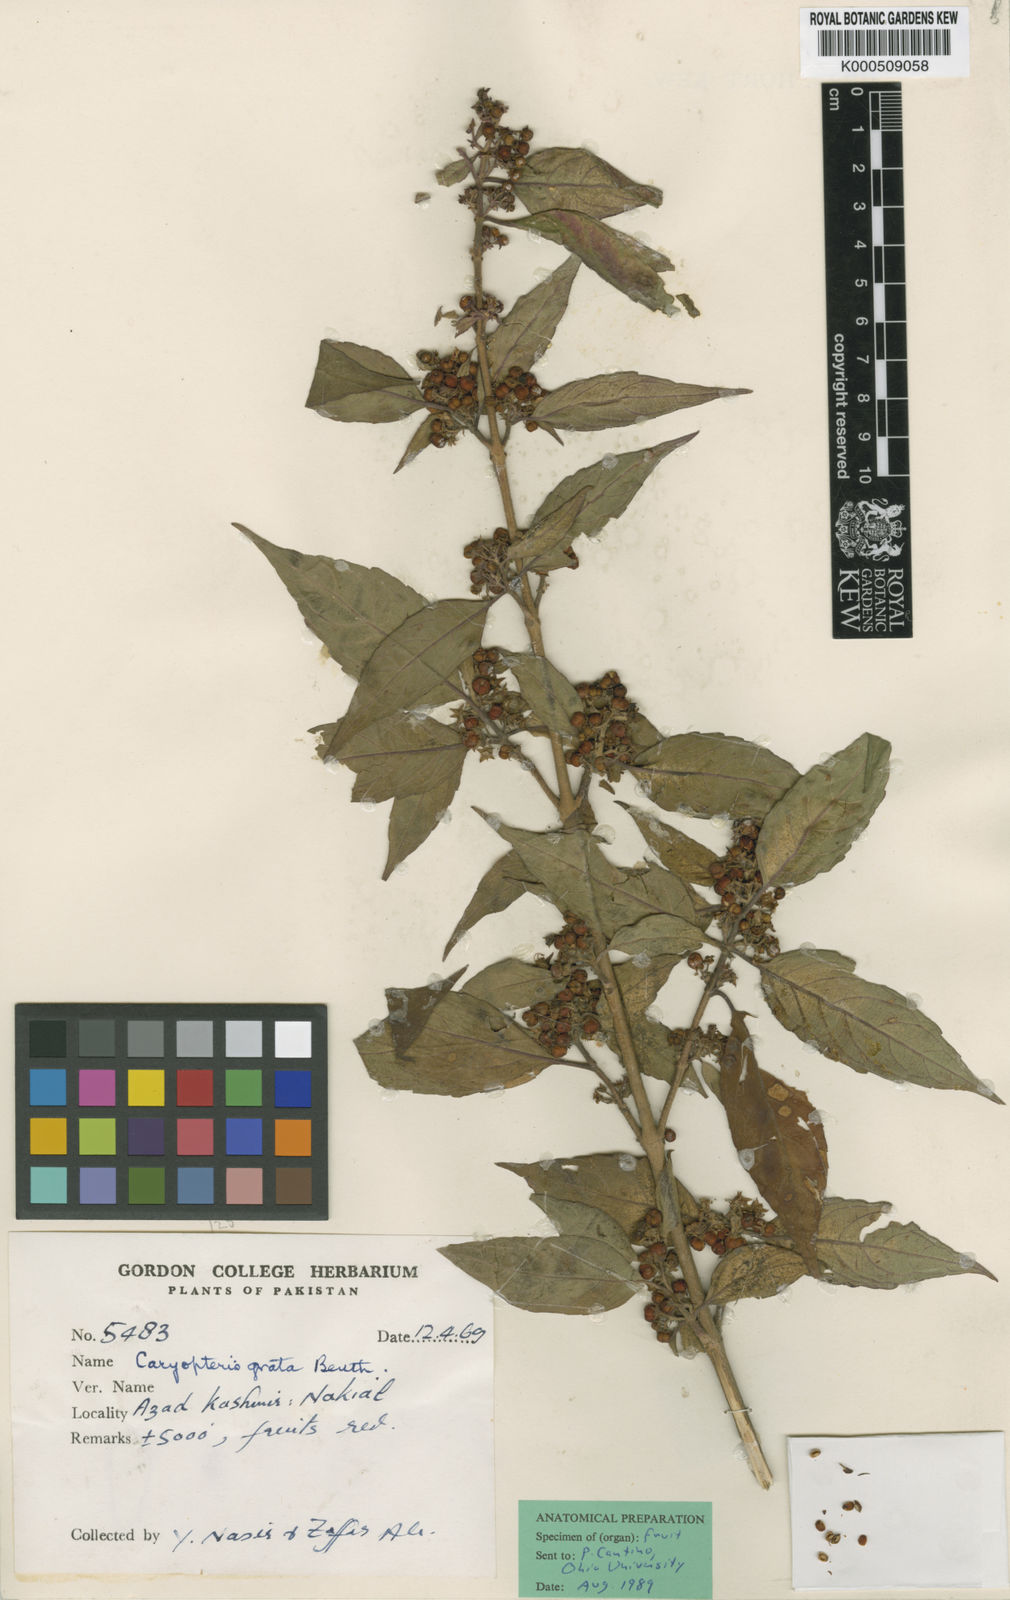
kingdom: Plantae
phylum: Tracheophyta
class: Magnoliopsida
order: Lamiales
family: Lamiaceae
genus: Pseudocaryopteris
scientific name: Pseudocaryopteris foetida
